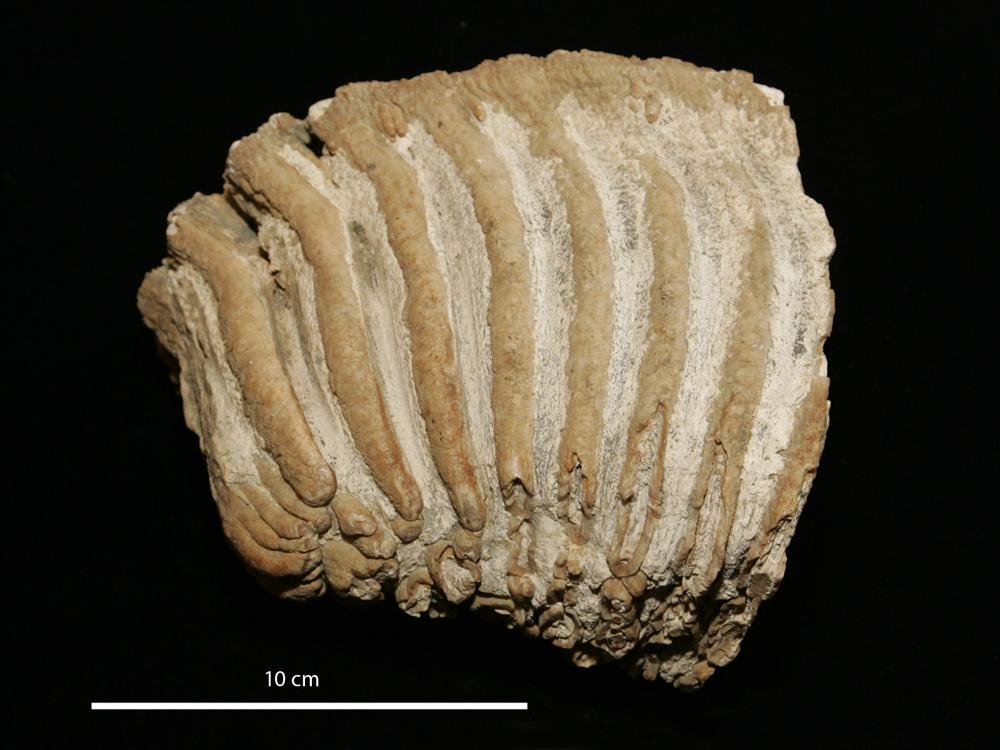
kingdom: Animalia
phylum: Chordata
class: Mammalia
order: Proboscidea
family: Elephantidae
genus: Mammuthus
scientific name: Mammuthus
